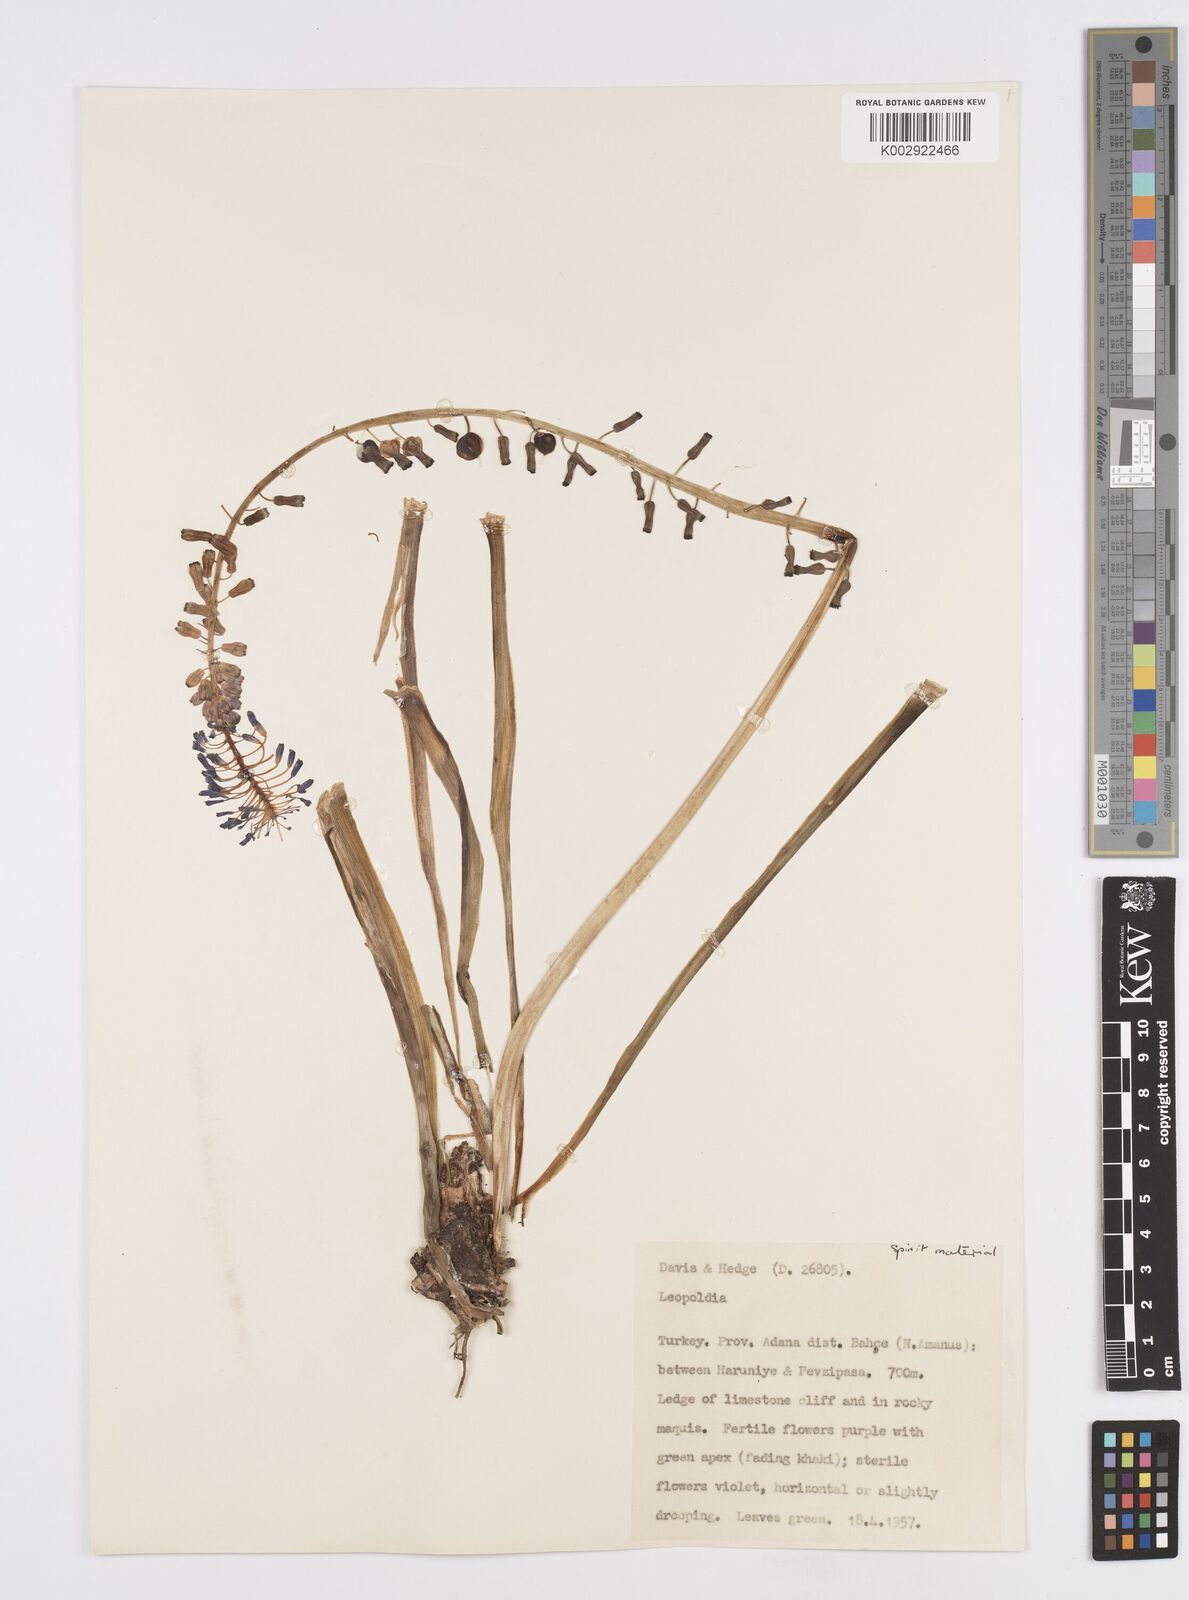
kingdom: Plantae
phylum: Tracheophyta
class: Liliopsida
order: Asparagales
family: Asparagaceae
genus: Muscari
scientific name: Muscari tenuiflorum
